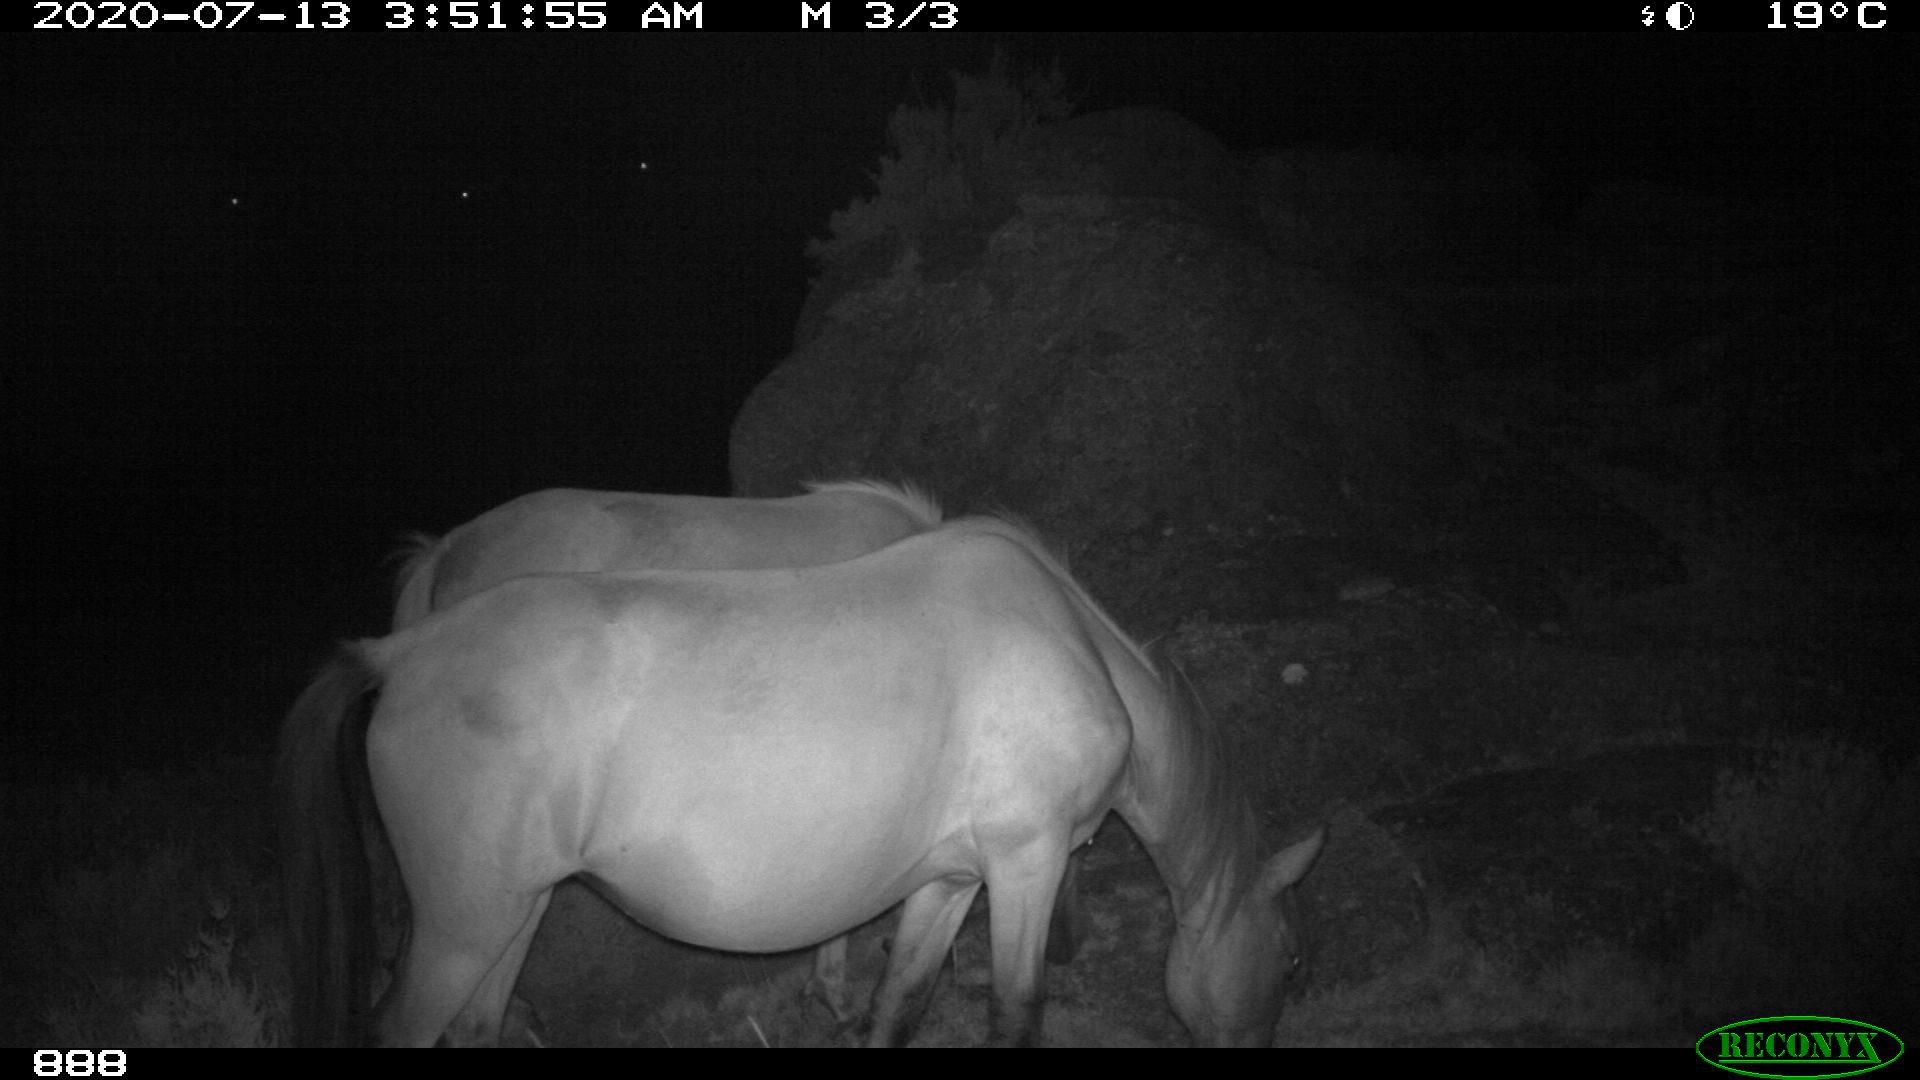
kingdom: Animalia
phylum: Chordata
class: Mammalia
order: Perissodactyla
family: Equidae
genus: Equus
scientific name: Equus caballus
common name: Horse
